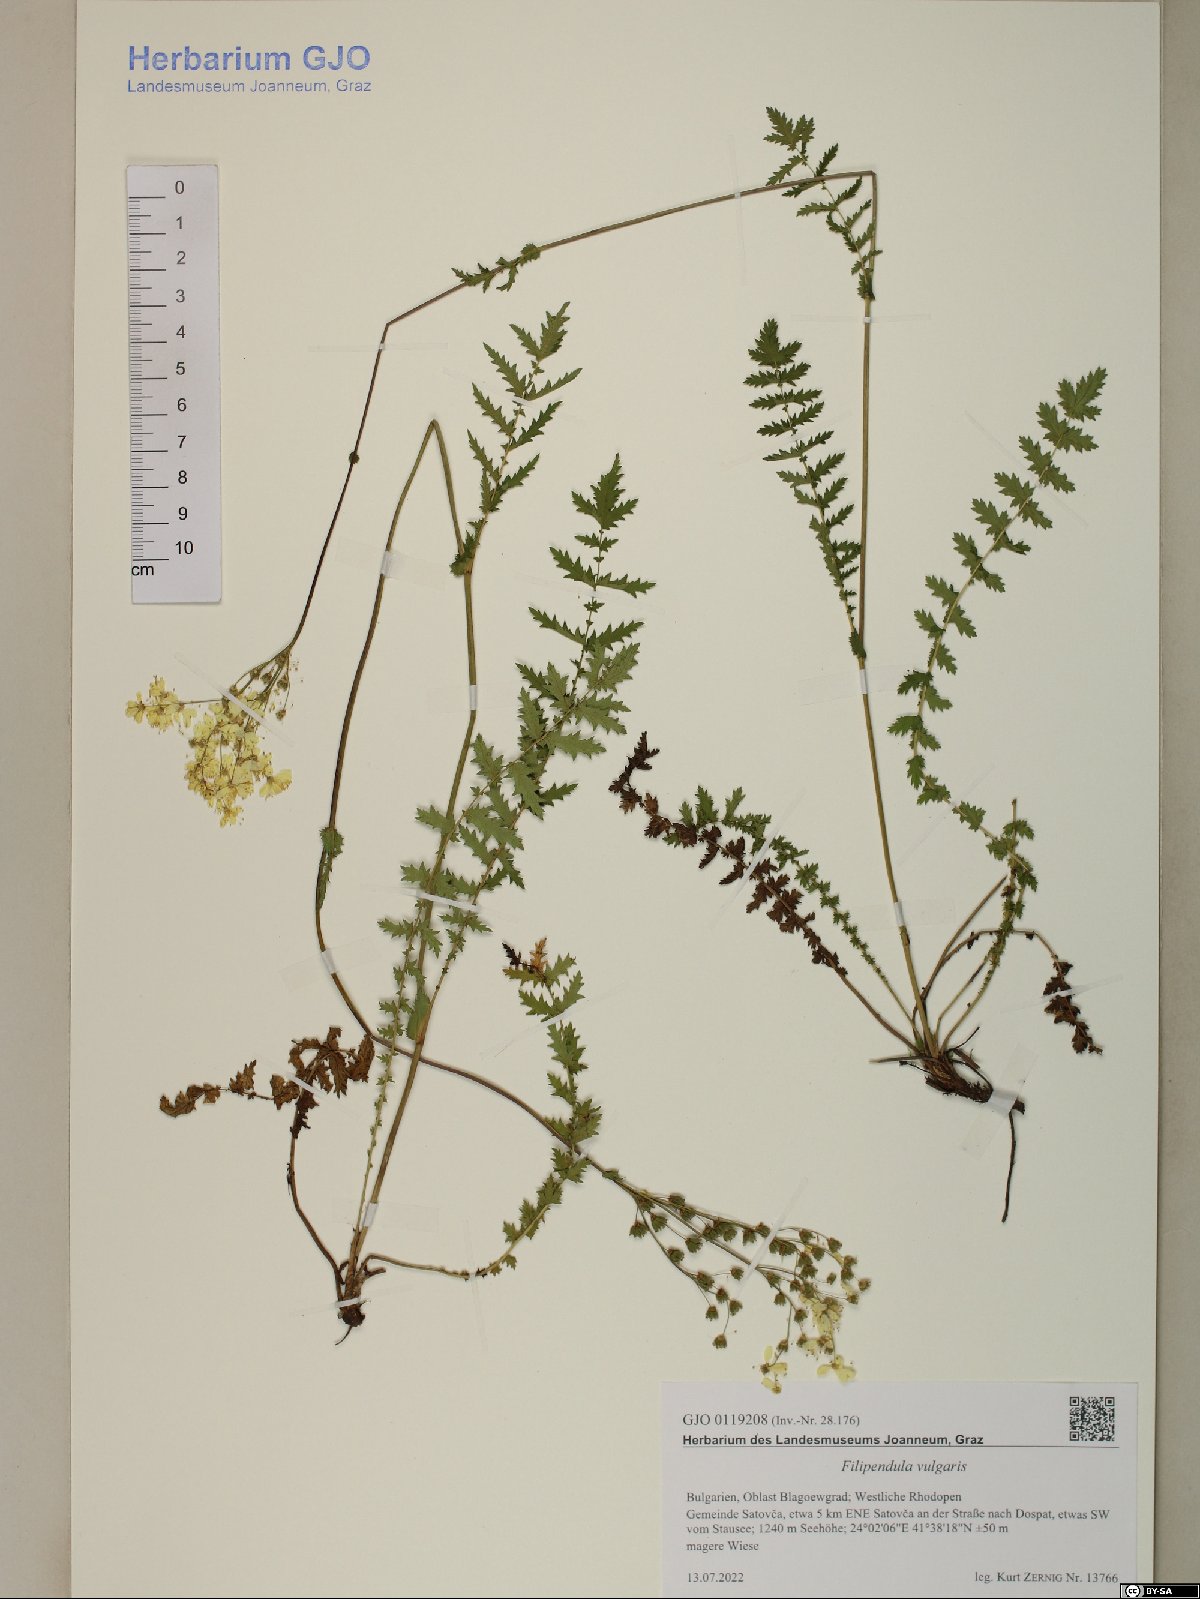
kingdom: Plantae
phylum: Tracheophyta
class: Magnoliopsida
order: Rosales
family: Rosaceae
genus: Filipendula
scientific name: Filipendula vulgaris
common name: Dropwort
